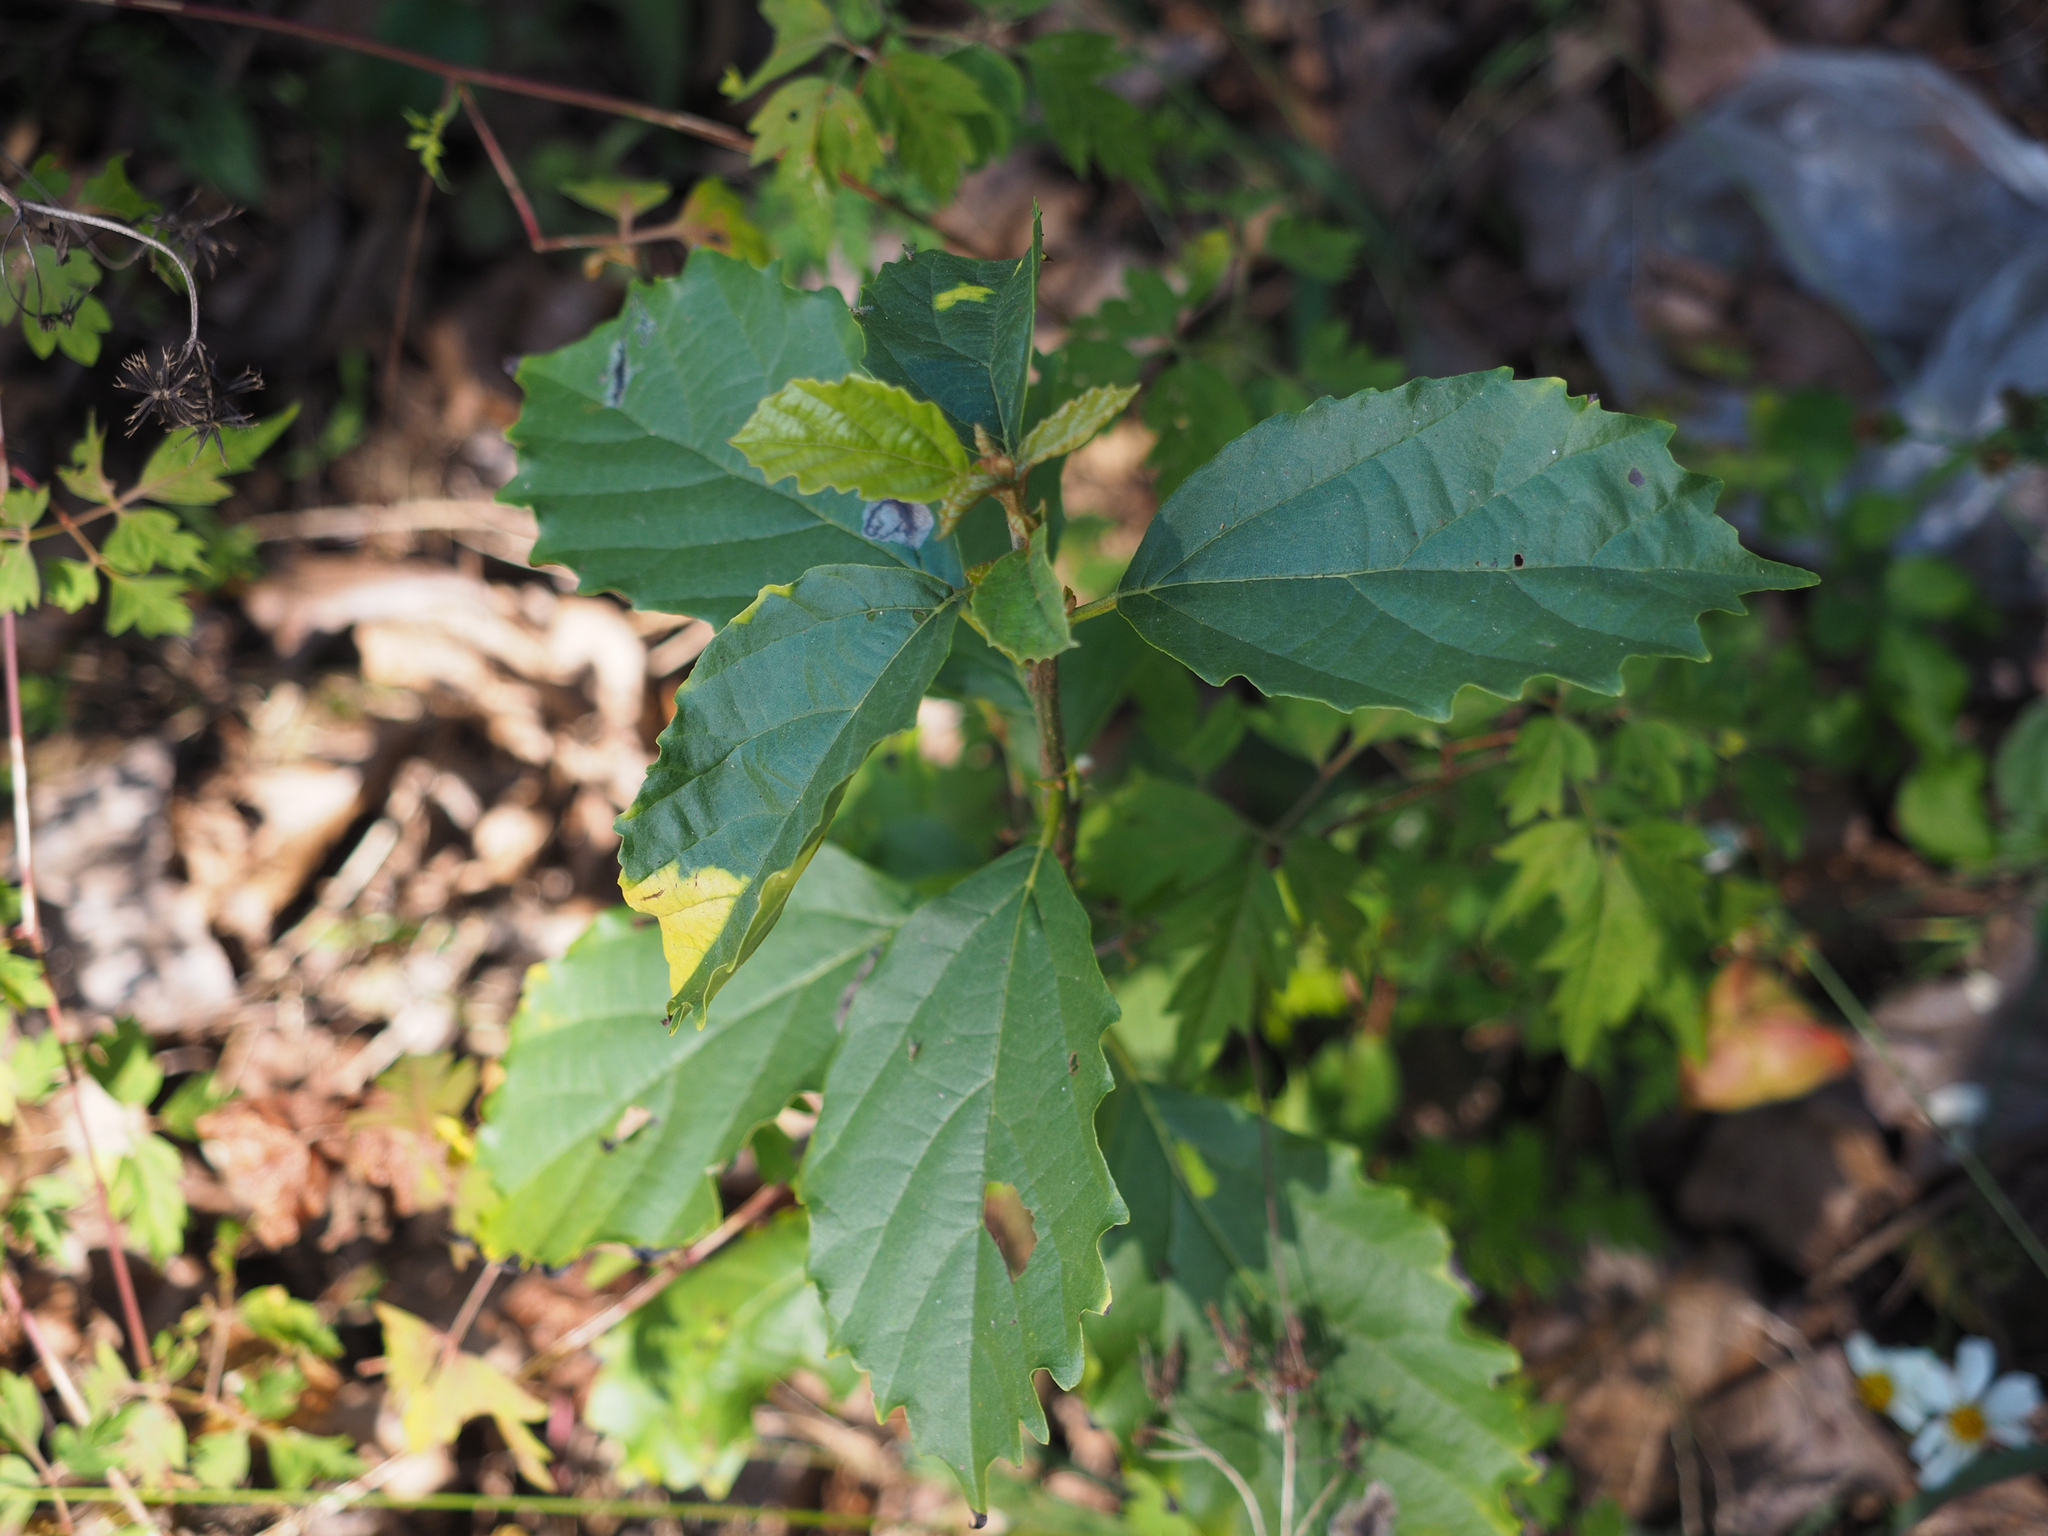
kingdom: Plantae
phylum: Tracheophyta
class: Magnoliopsida
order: Boraginales
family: Cordiaceae
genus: Cordia
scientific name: Cordia dichotoma
